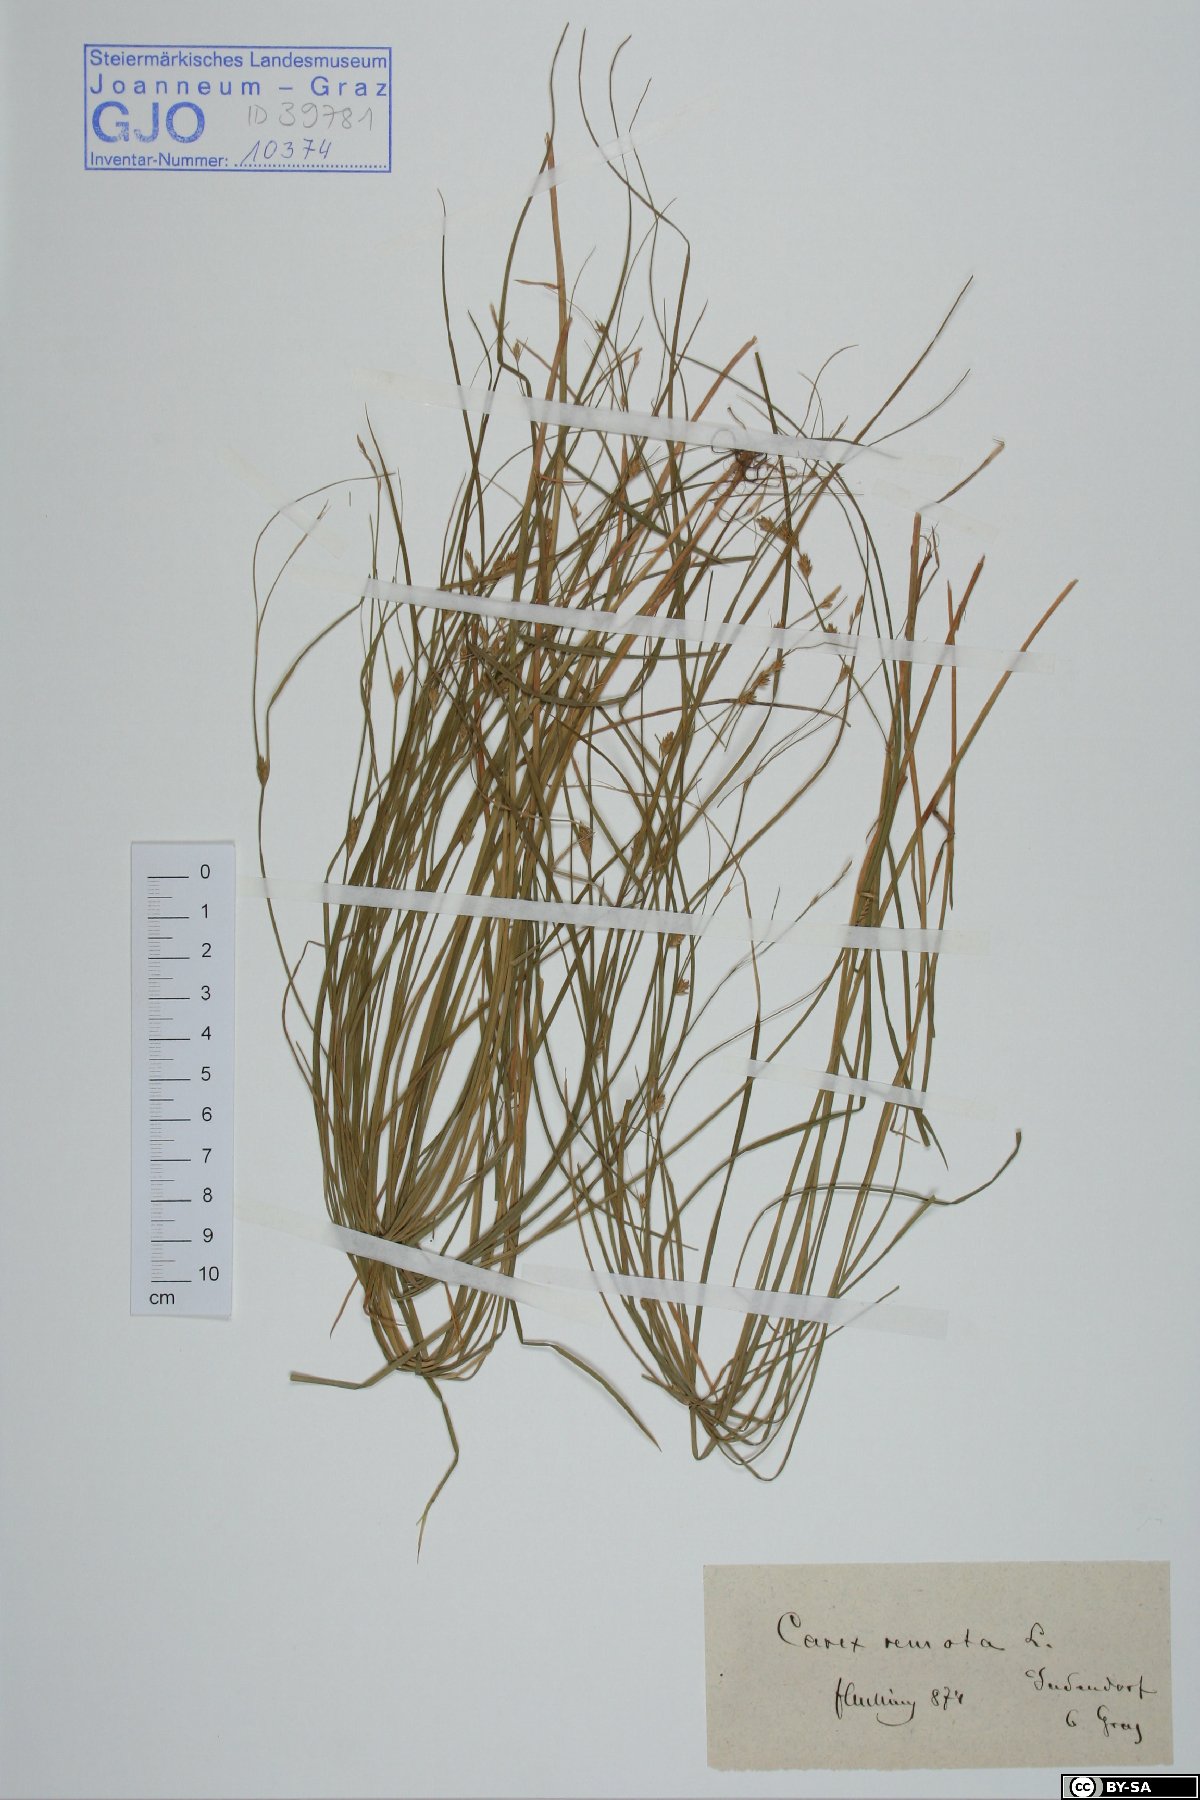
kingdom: Plantae
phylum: Tracheophyta
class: Liliopsida
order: Poales
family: Cyperaceae
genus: Carex
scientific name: Carex remota
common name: Remote sedge
